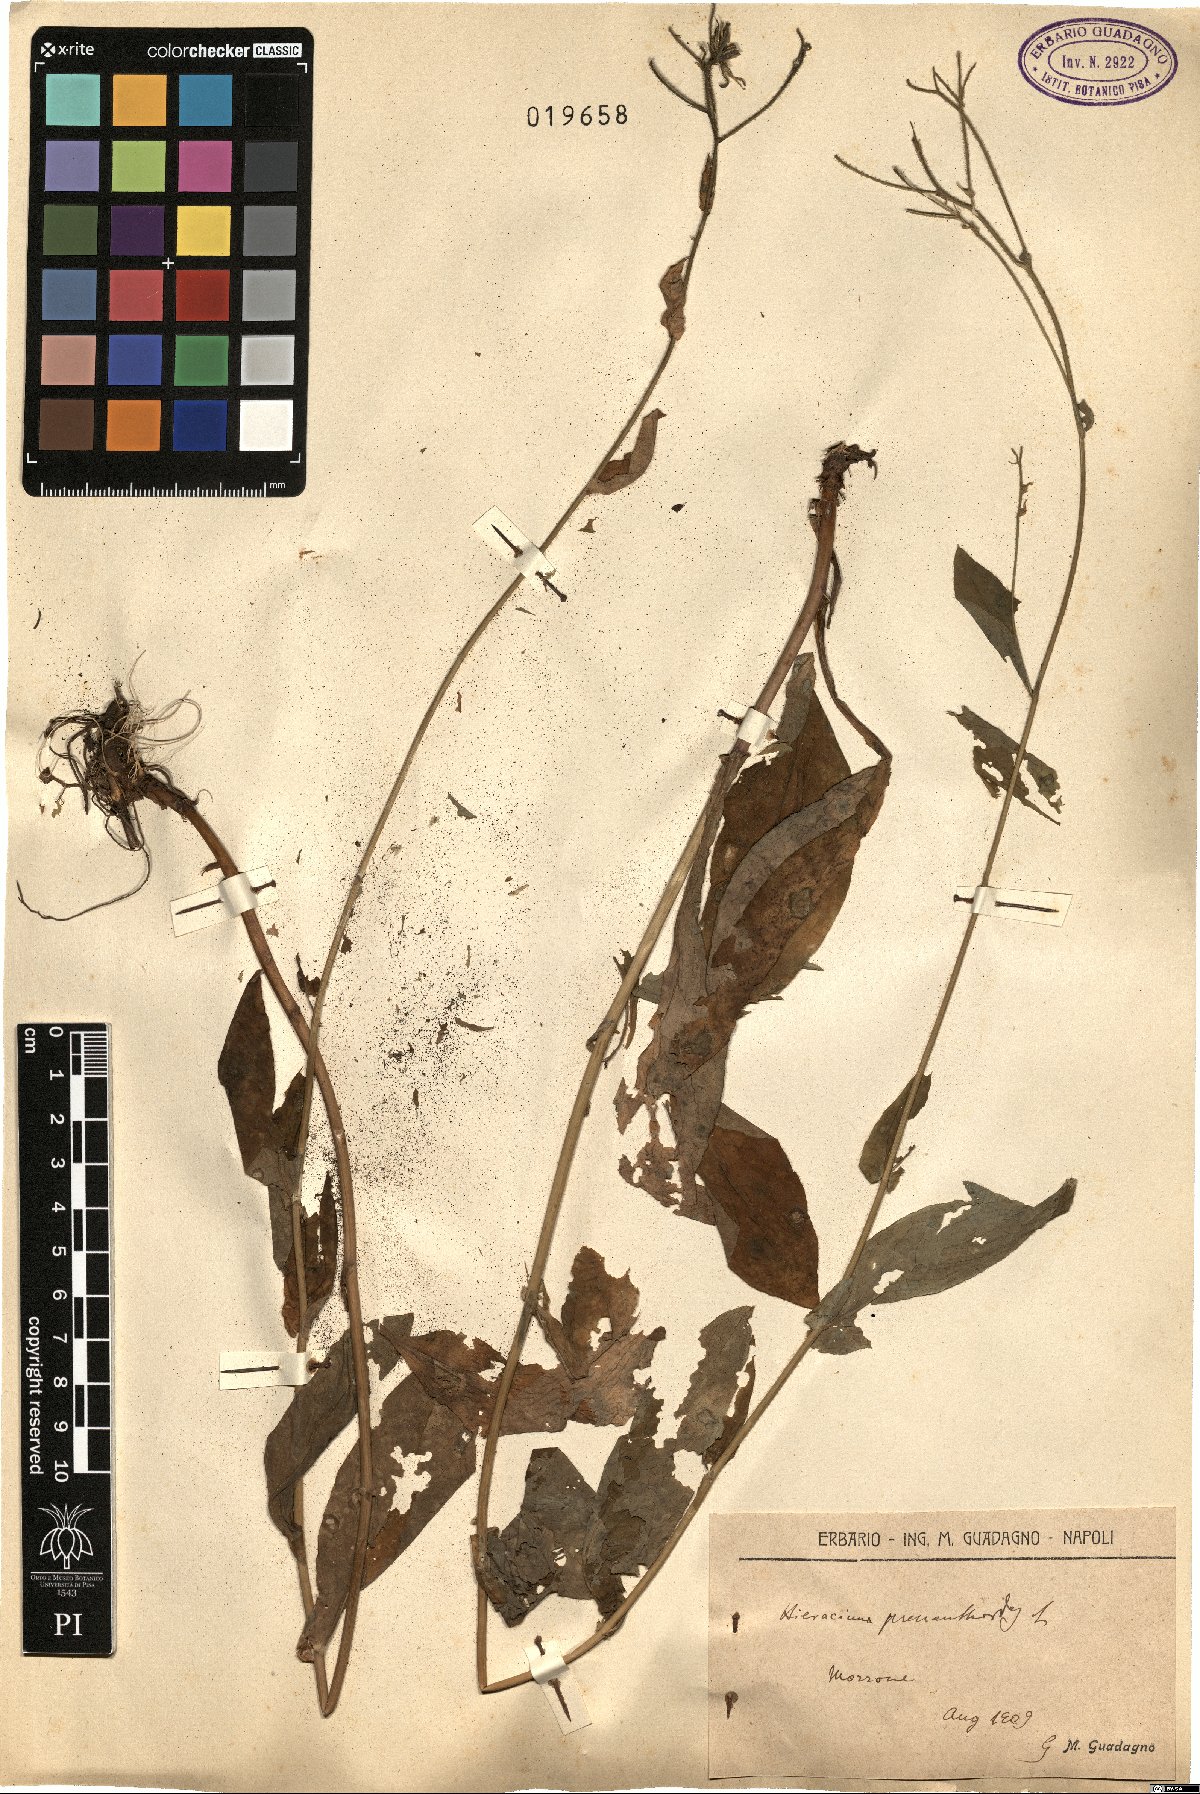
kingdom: Plantae
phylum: Tracheophyta
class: Magnoliopsida
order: Asterales
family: Asteraceae
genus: Hieracium
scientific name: Hieracium prenanthoides
